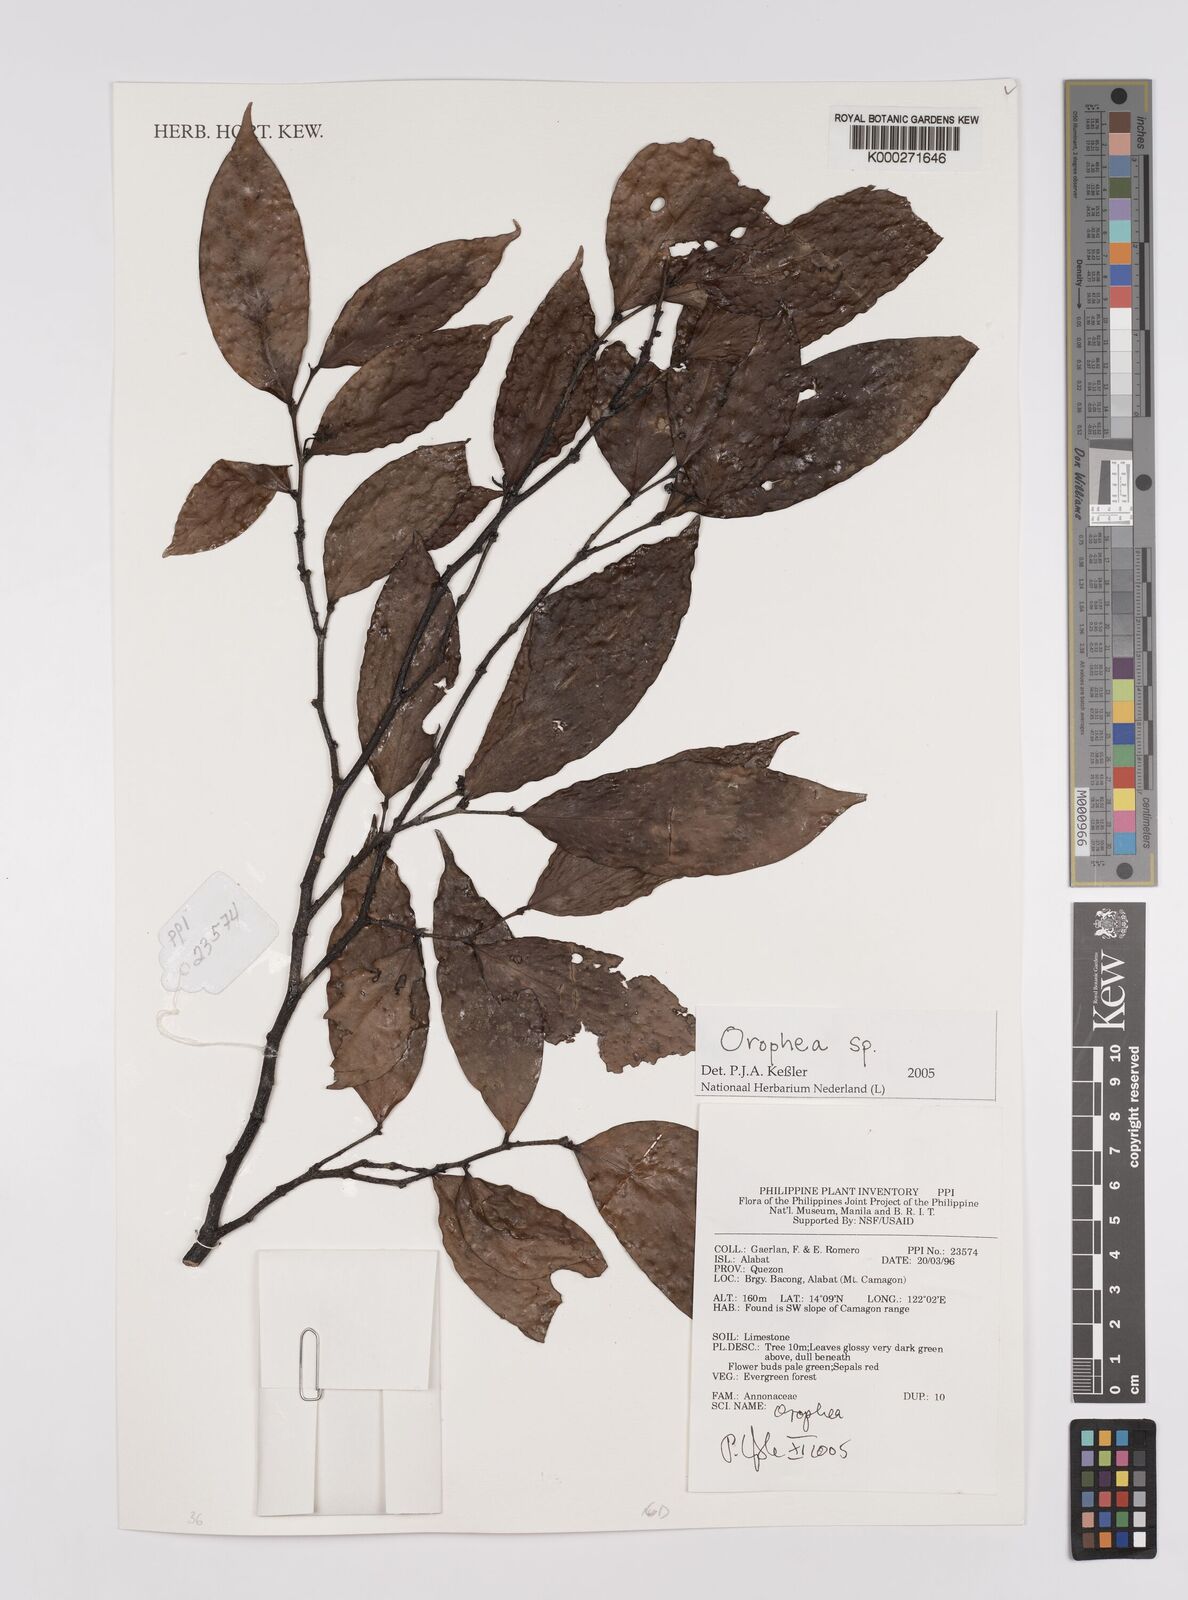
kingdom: Plantae
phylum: Tracheophyta
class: Magnoliopsida
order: Magnoliales
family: Annonaceae
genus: Orophea
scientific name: Orophea
